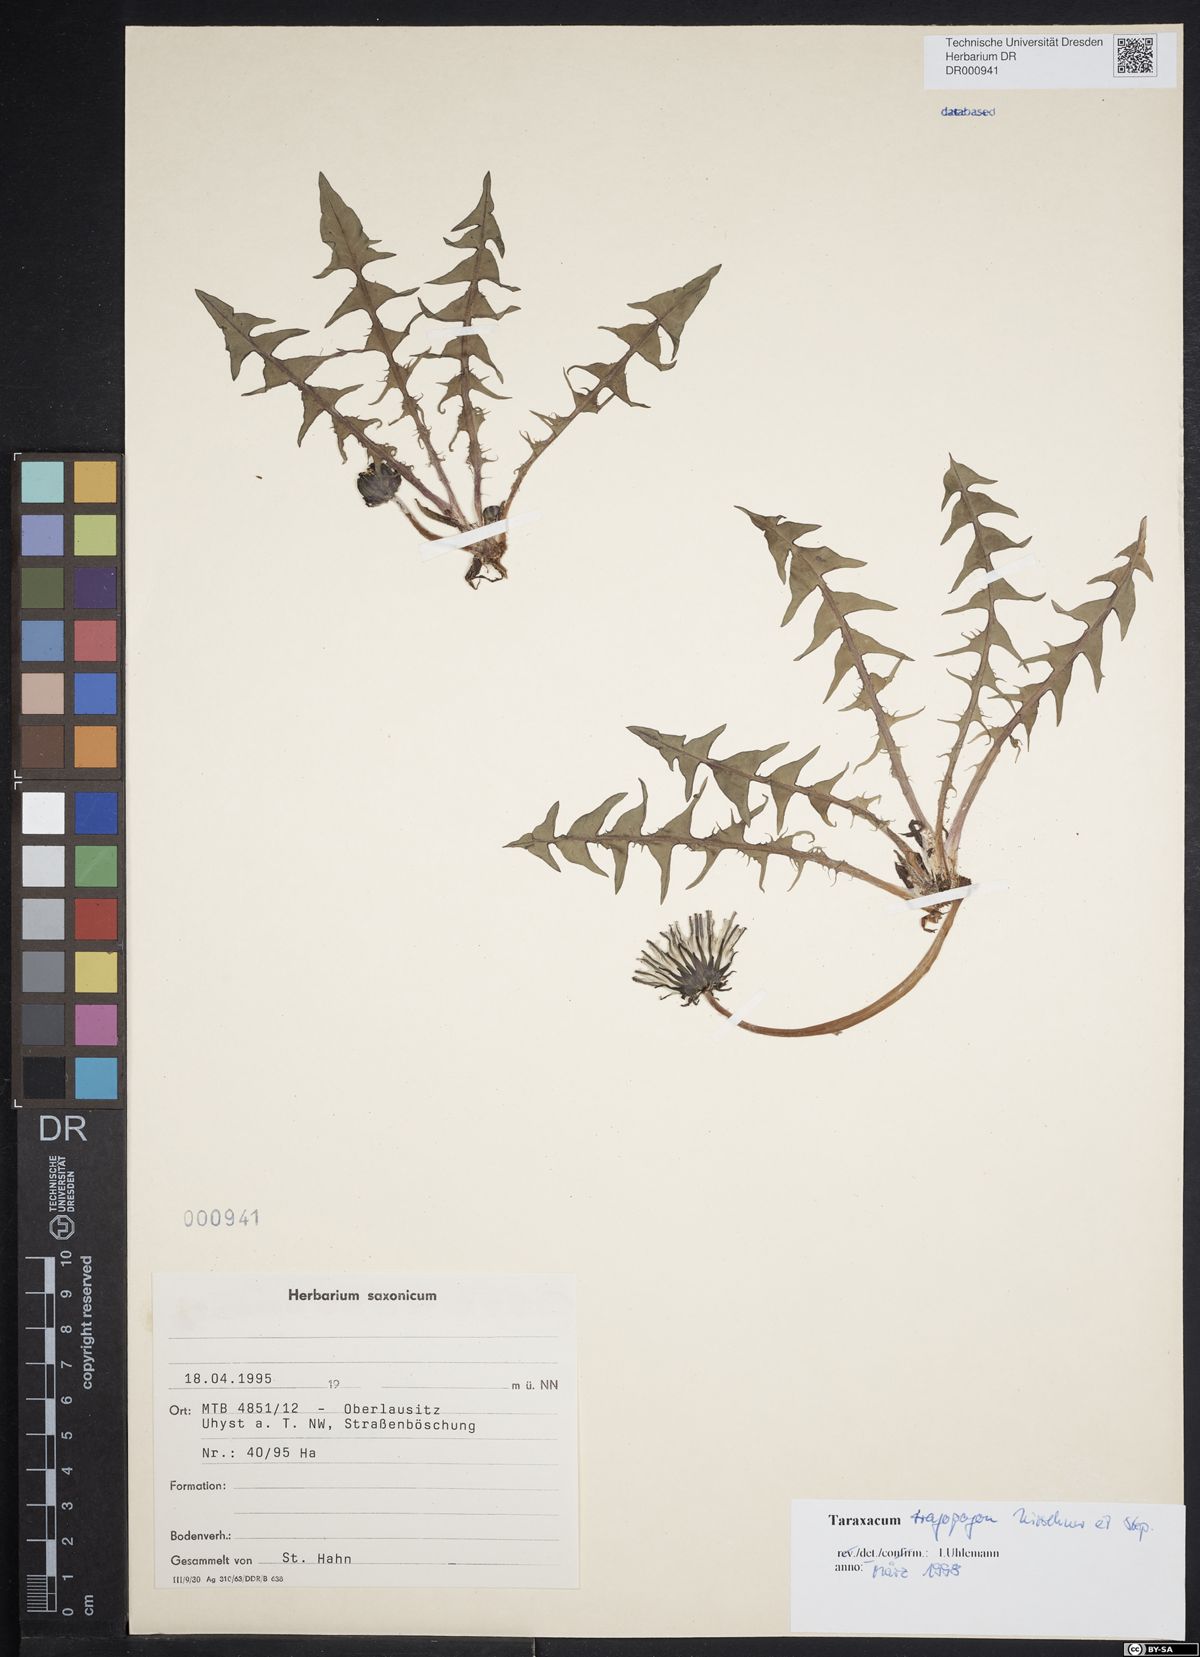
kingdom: Plantae
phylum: Tracheophyta
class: Magnoliopsida
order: Asterales
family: Asteraceae
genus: Taraxacum
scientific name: Taraxacum porrigentilobatum
